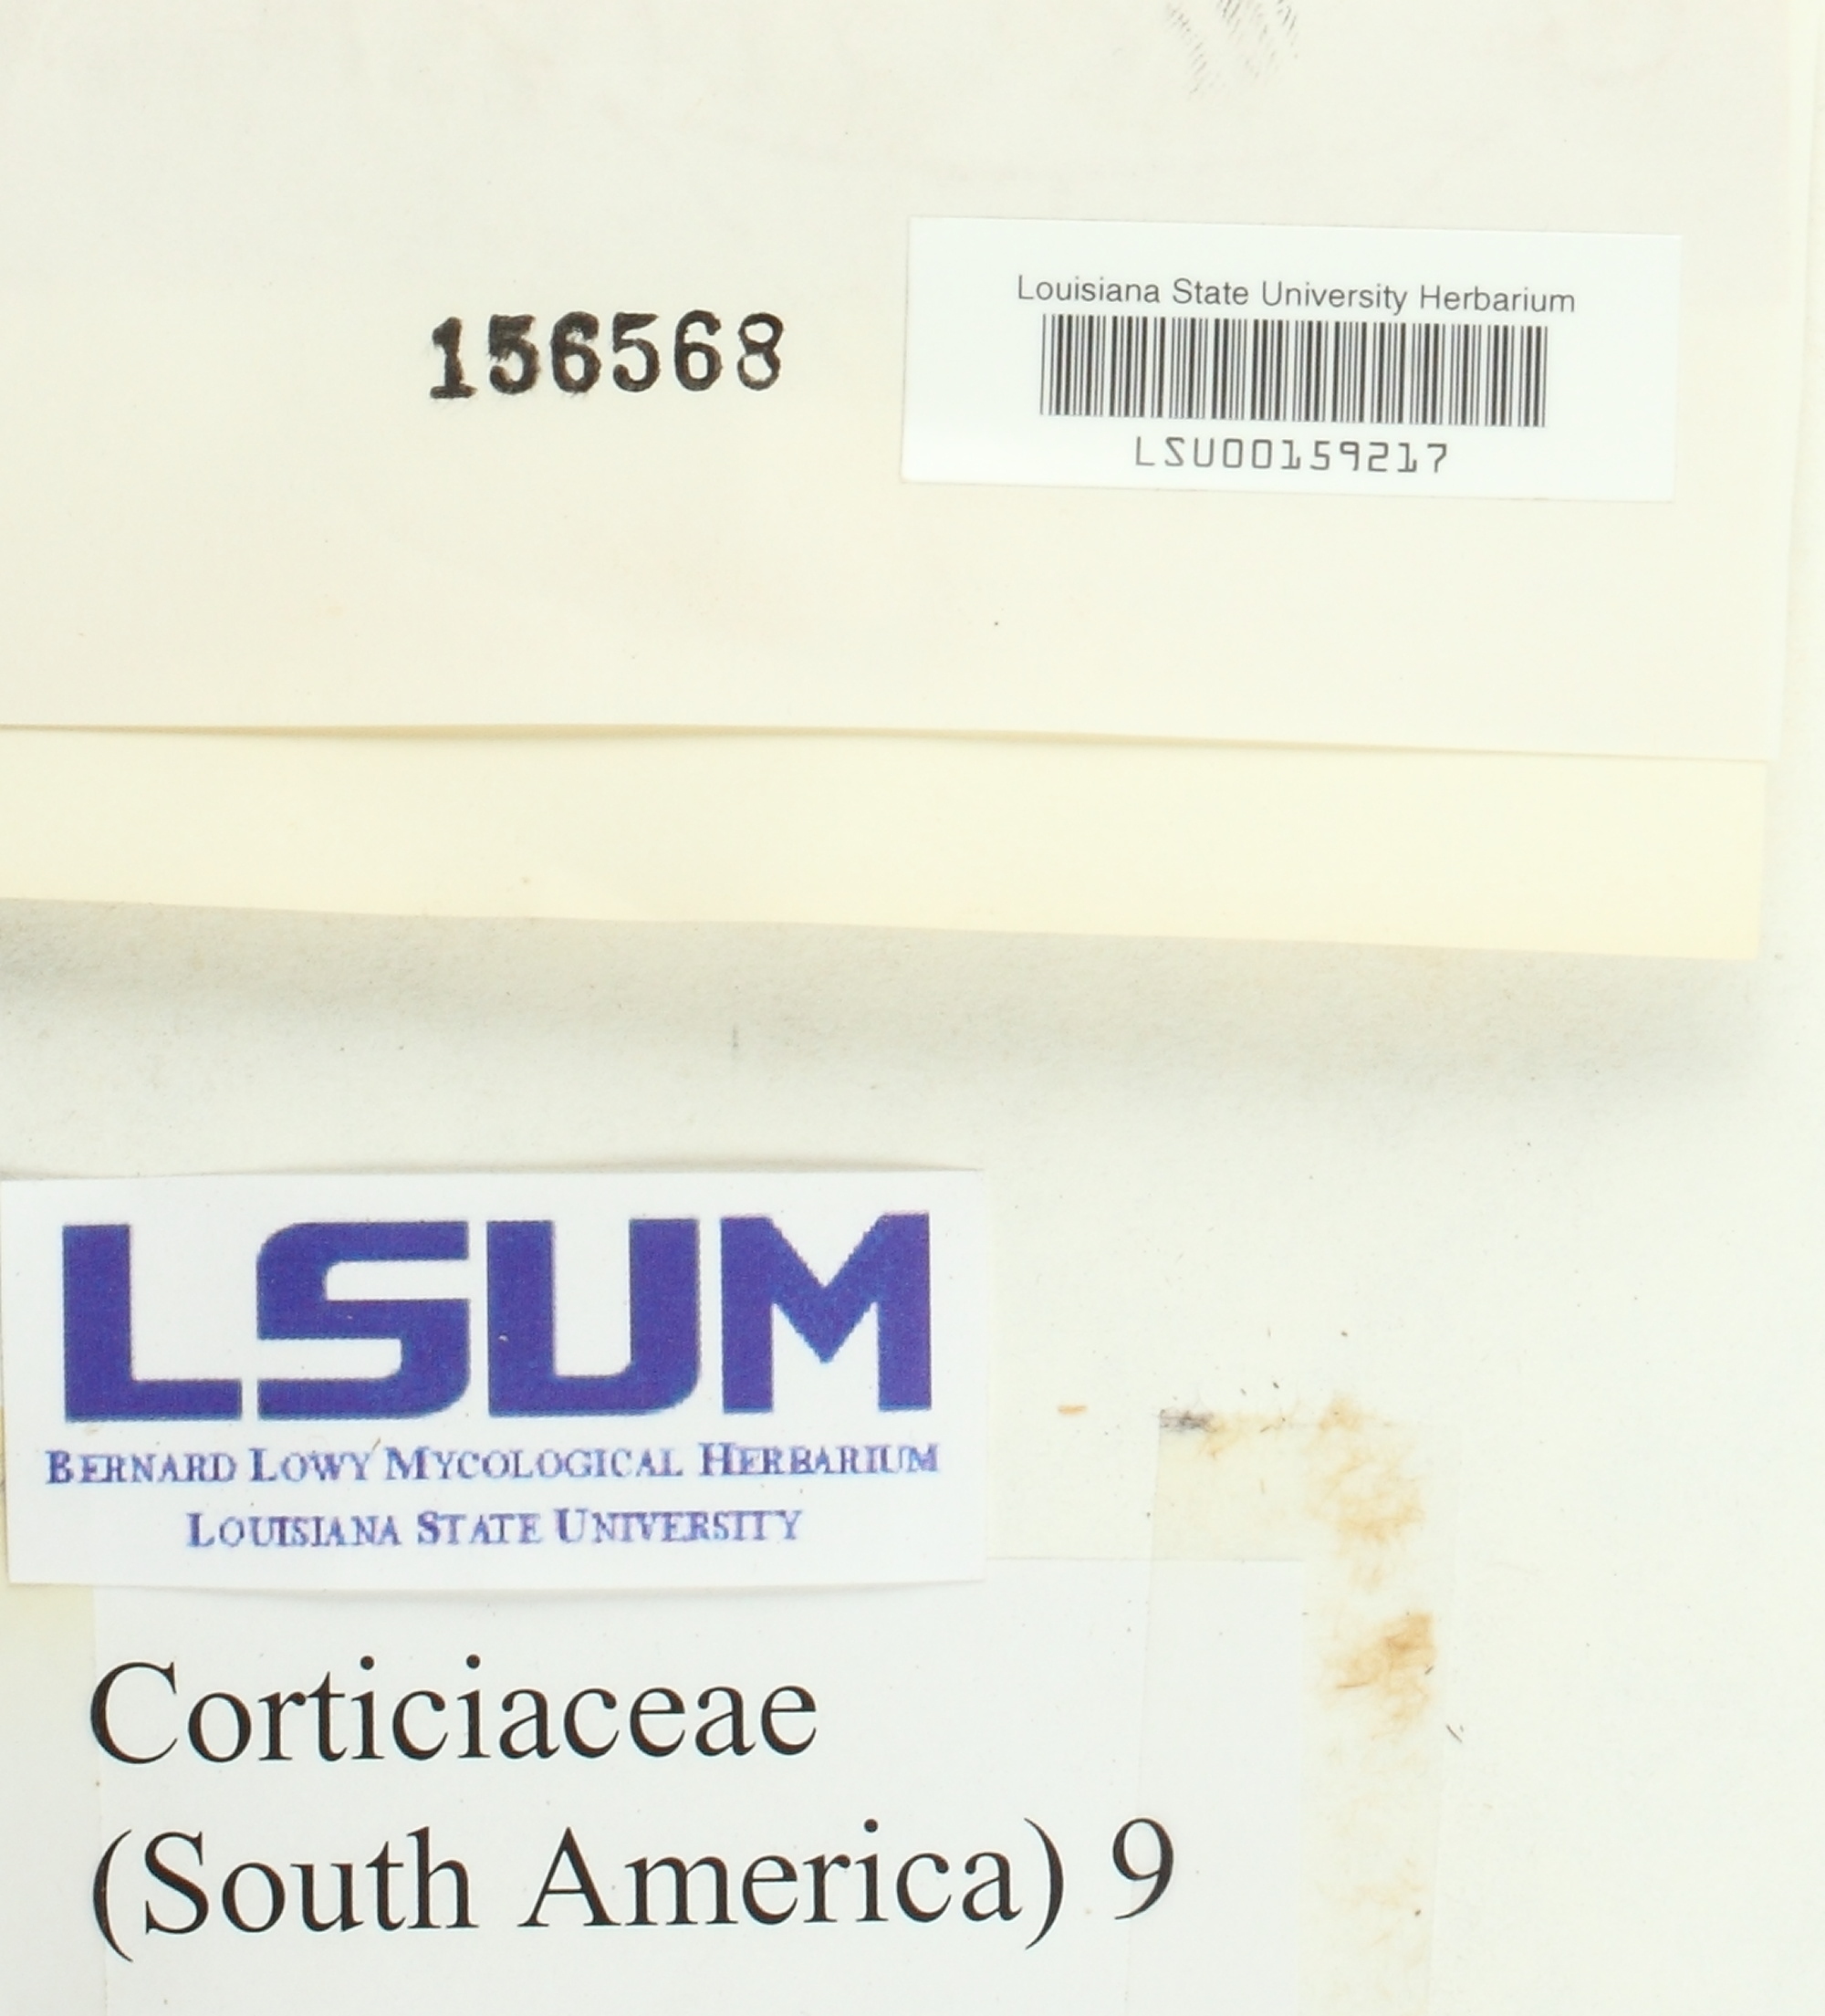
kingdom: Fungi
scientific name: Fungi
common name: Fungi
